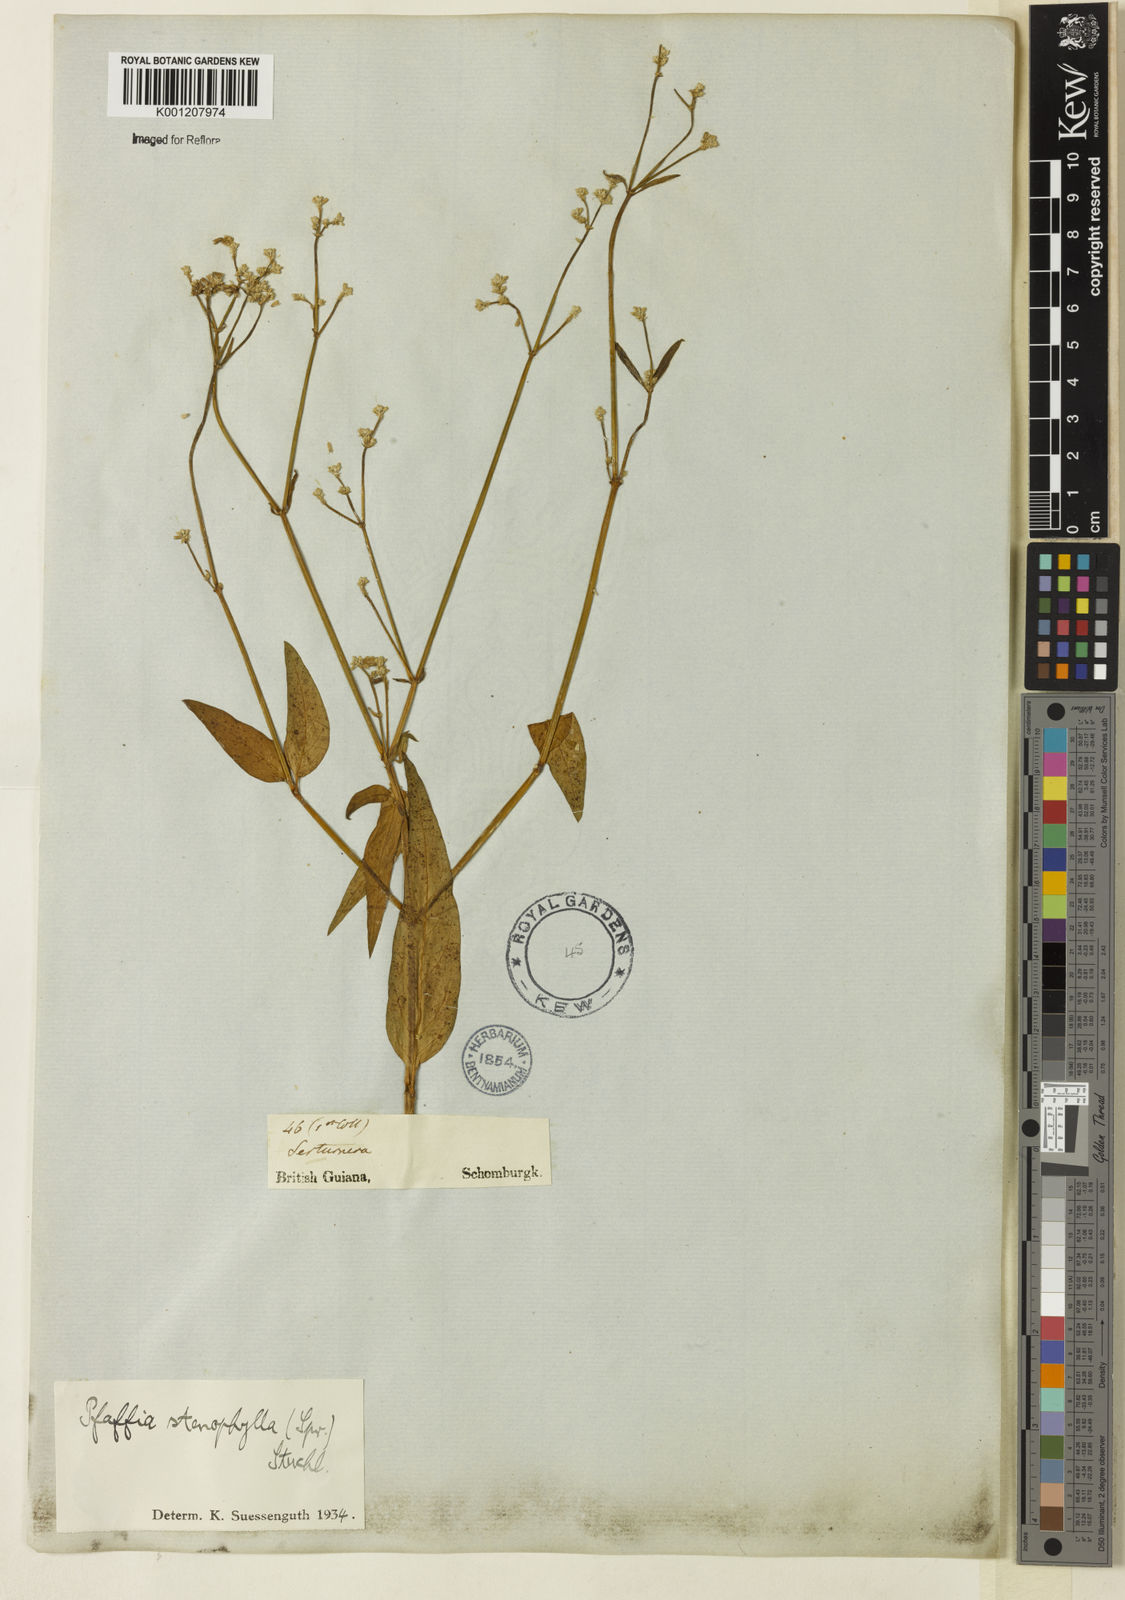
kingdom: Plantae
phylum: Tracheophyta
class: Magnoliopsida
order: Caryophyllales
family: Amaranthaceae
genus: Pfaffia
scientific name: Pfaffia
